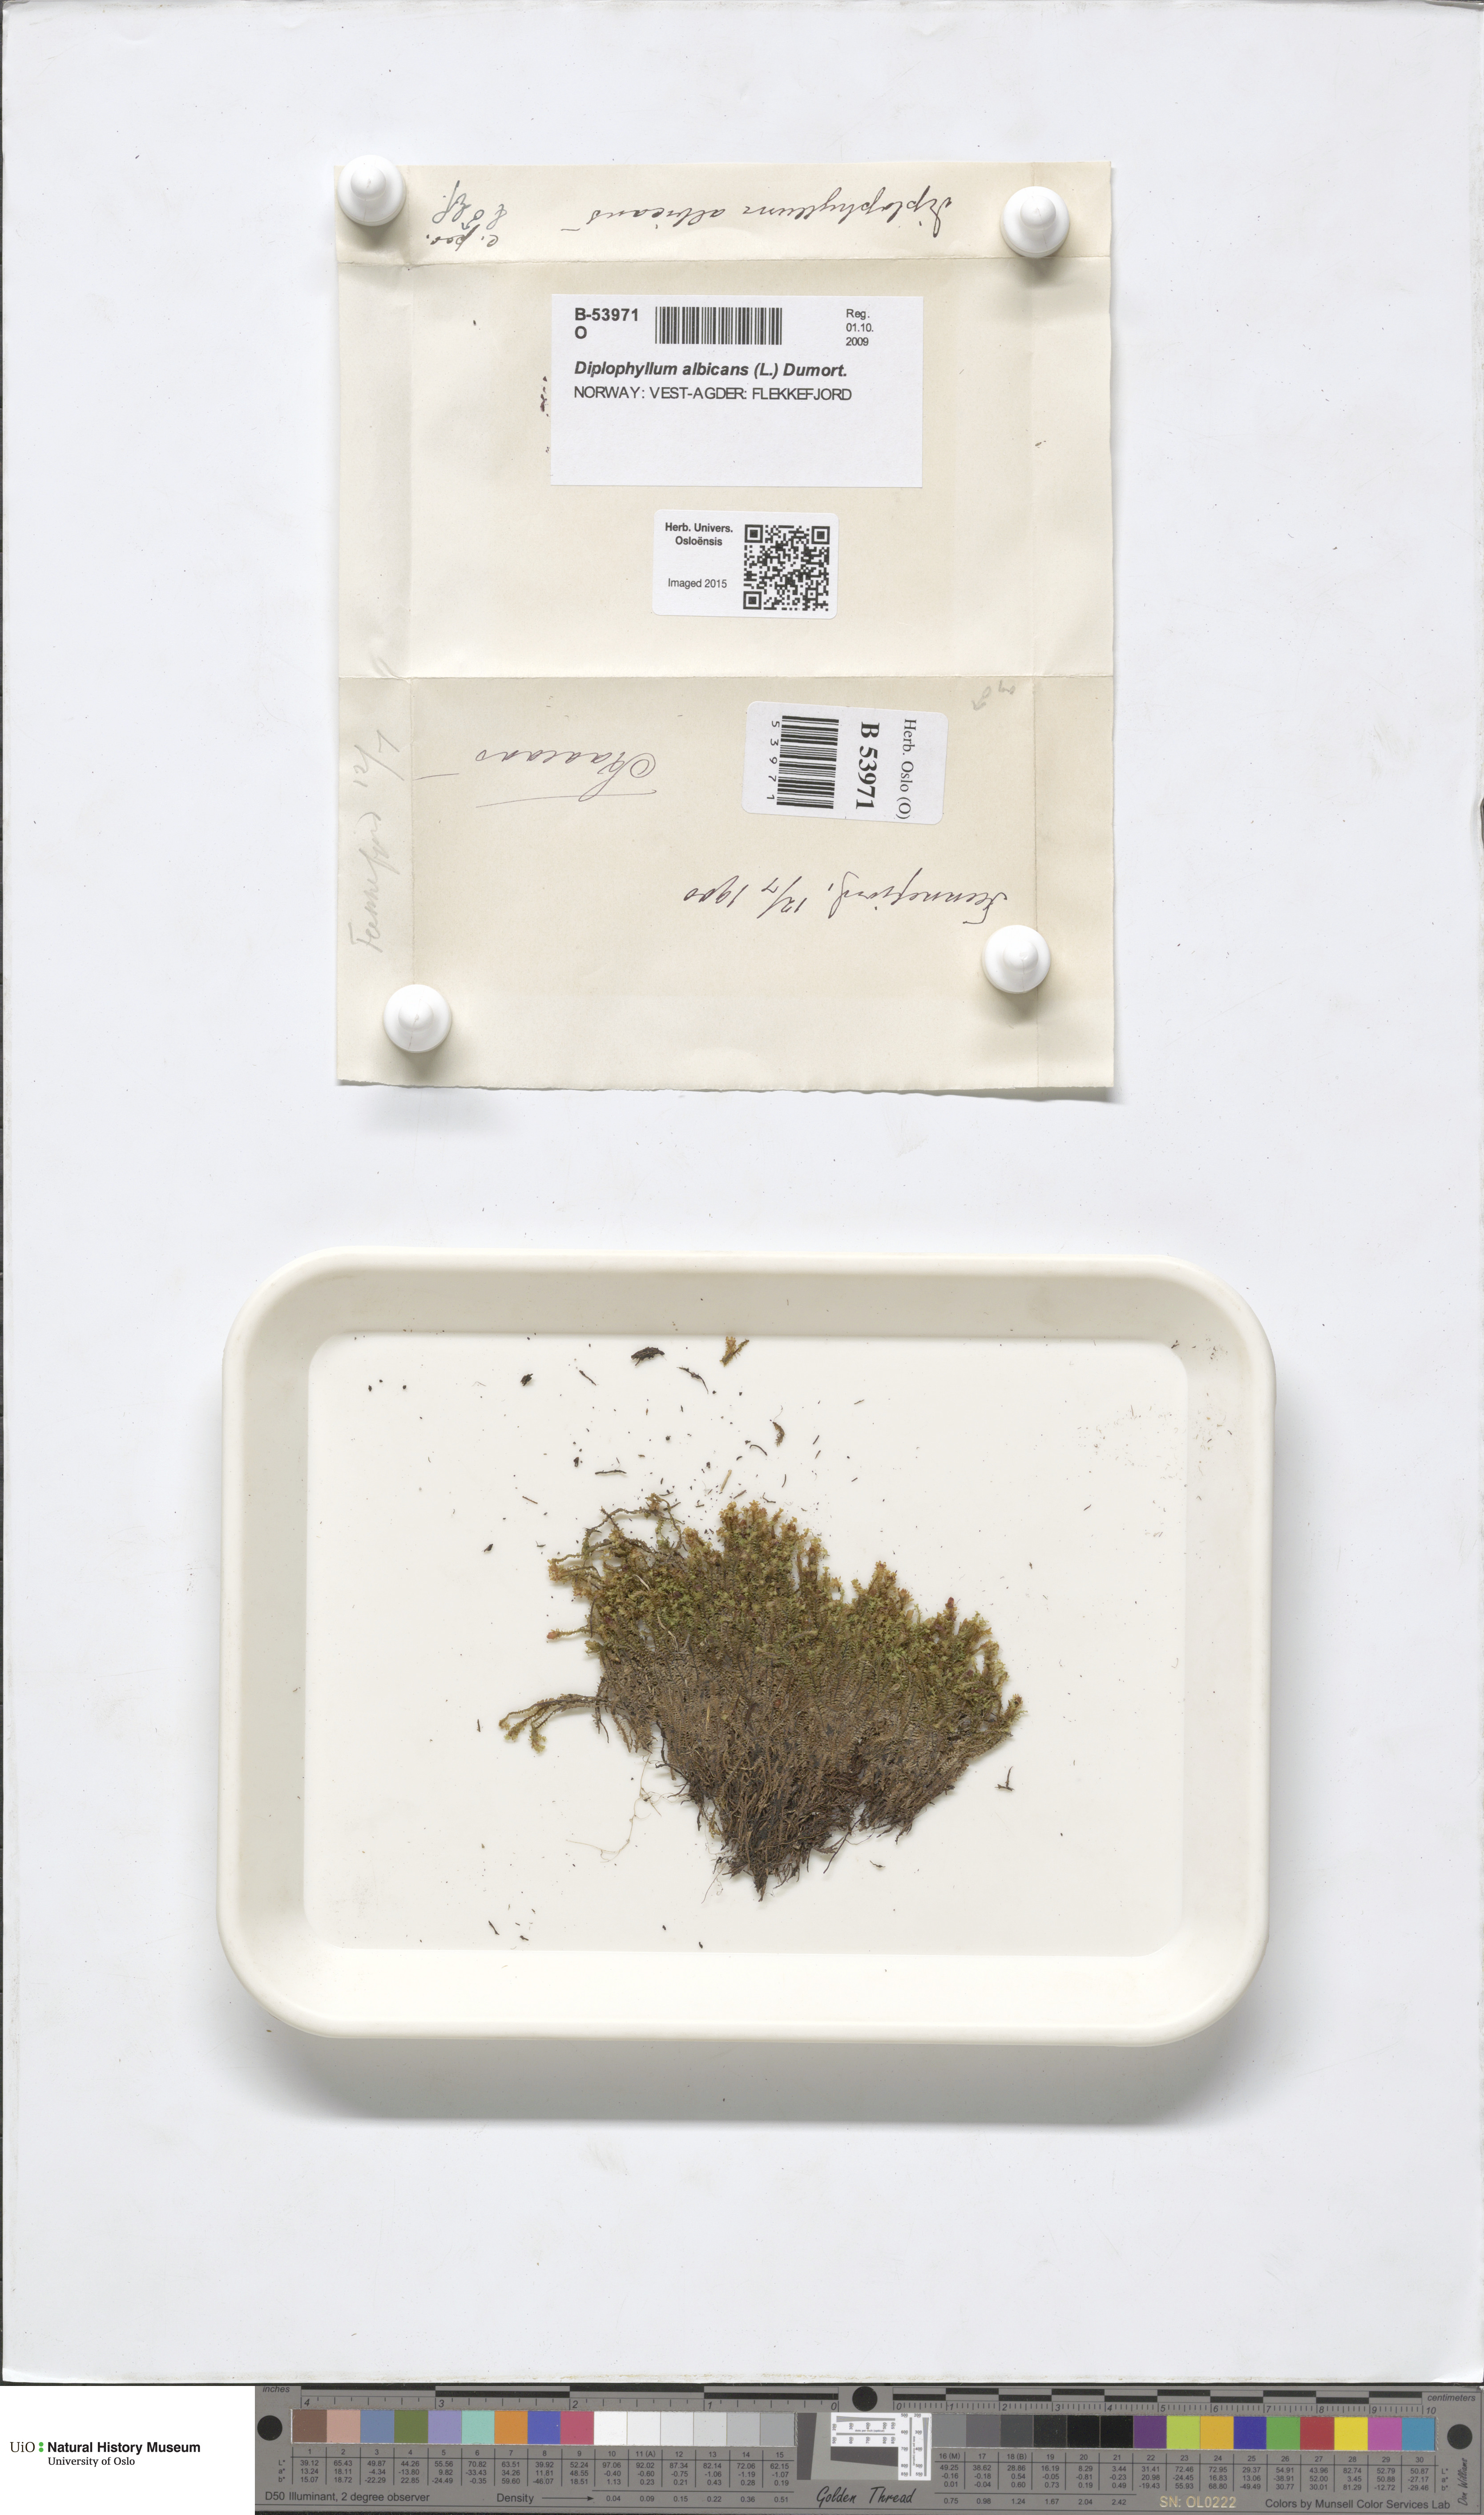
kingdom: Plantae
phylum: Marchantiophyta
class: Jungermanniopsida
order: Jungermanniales
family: Scapaniaceae
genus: Diplophyllum
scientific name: Diplophyllum albicans
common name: White earwort
